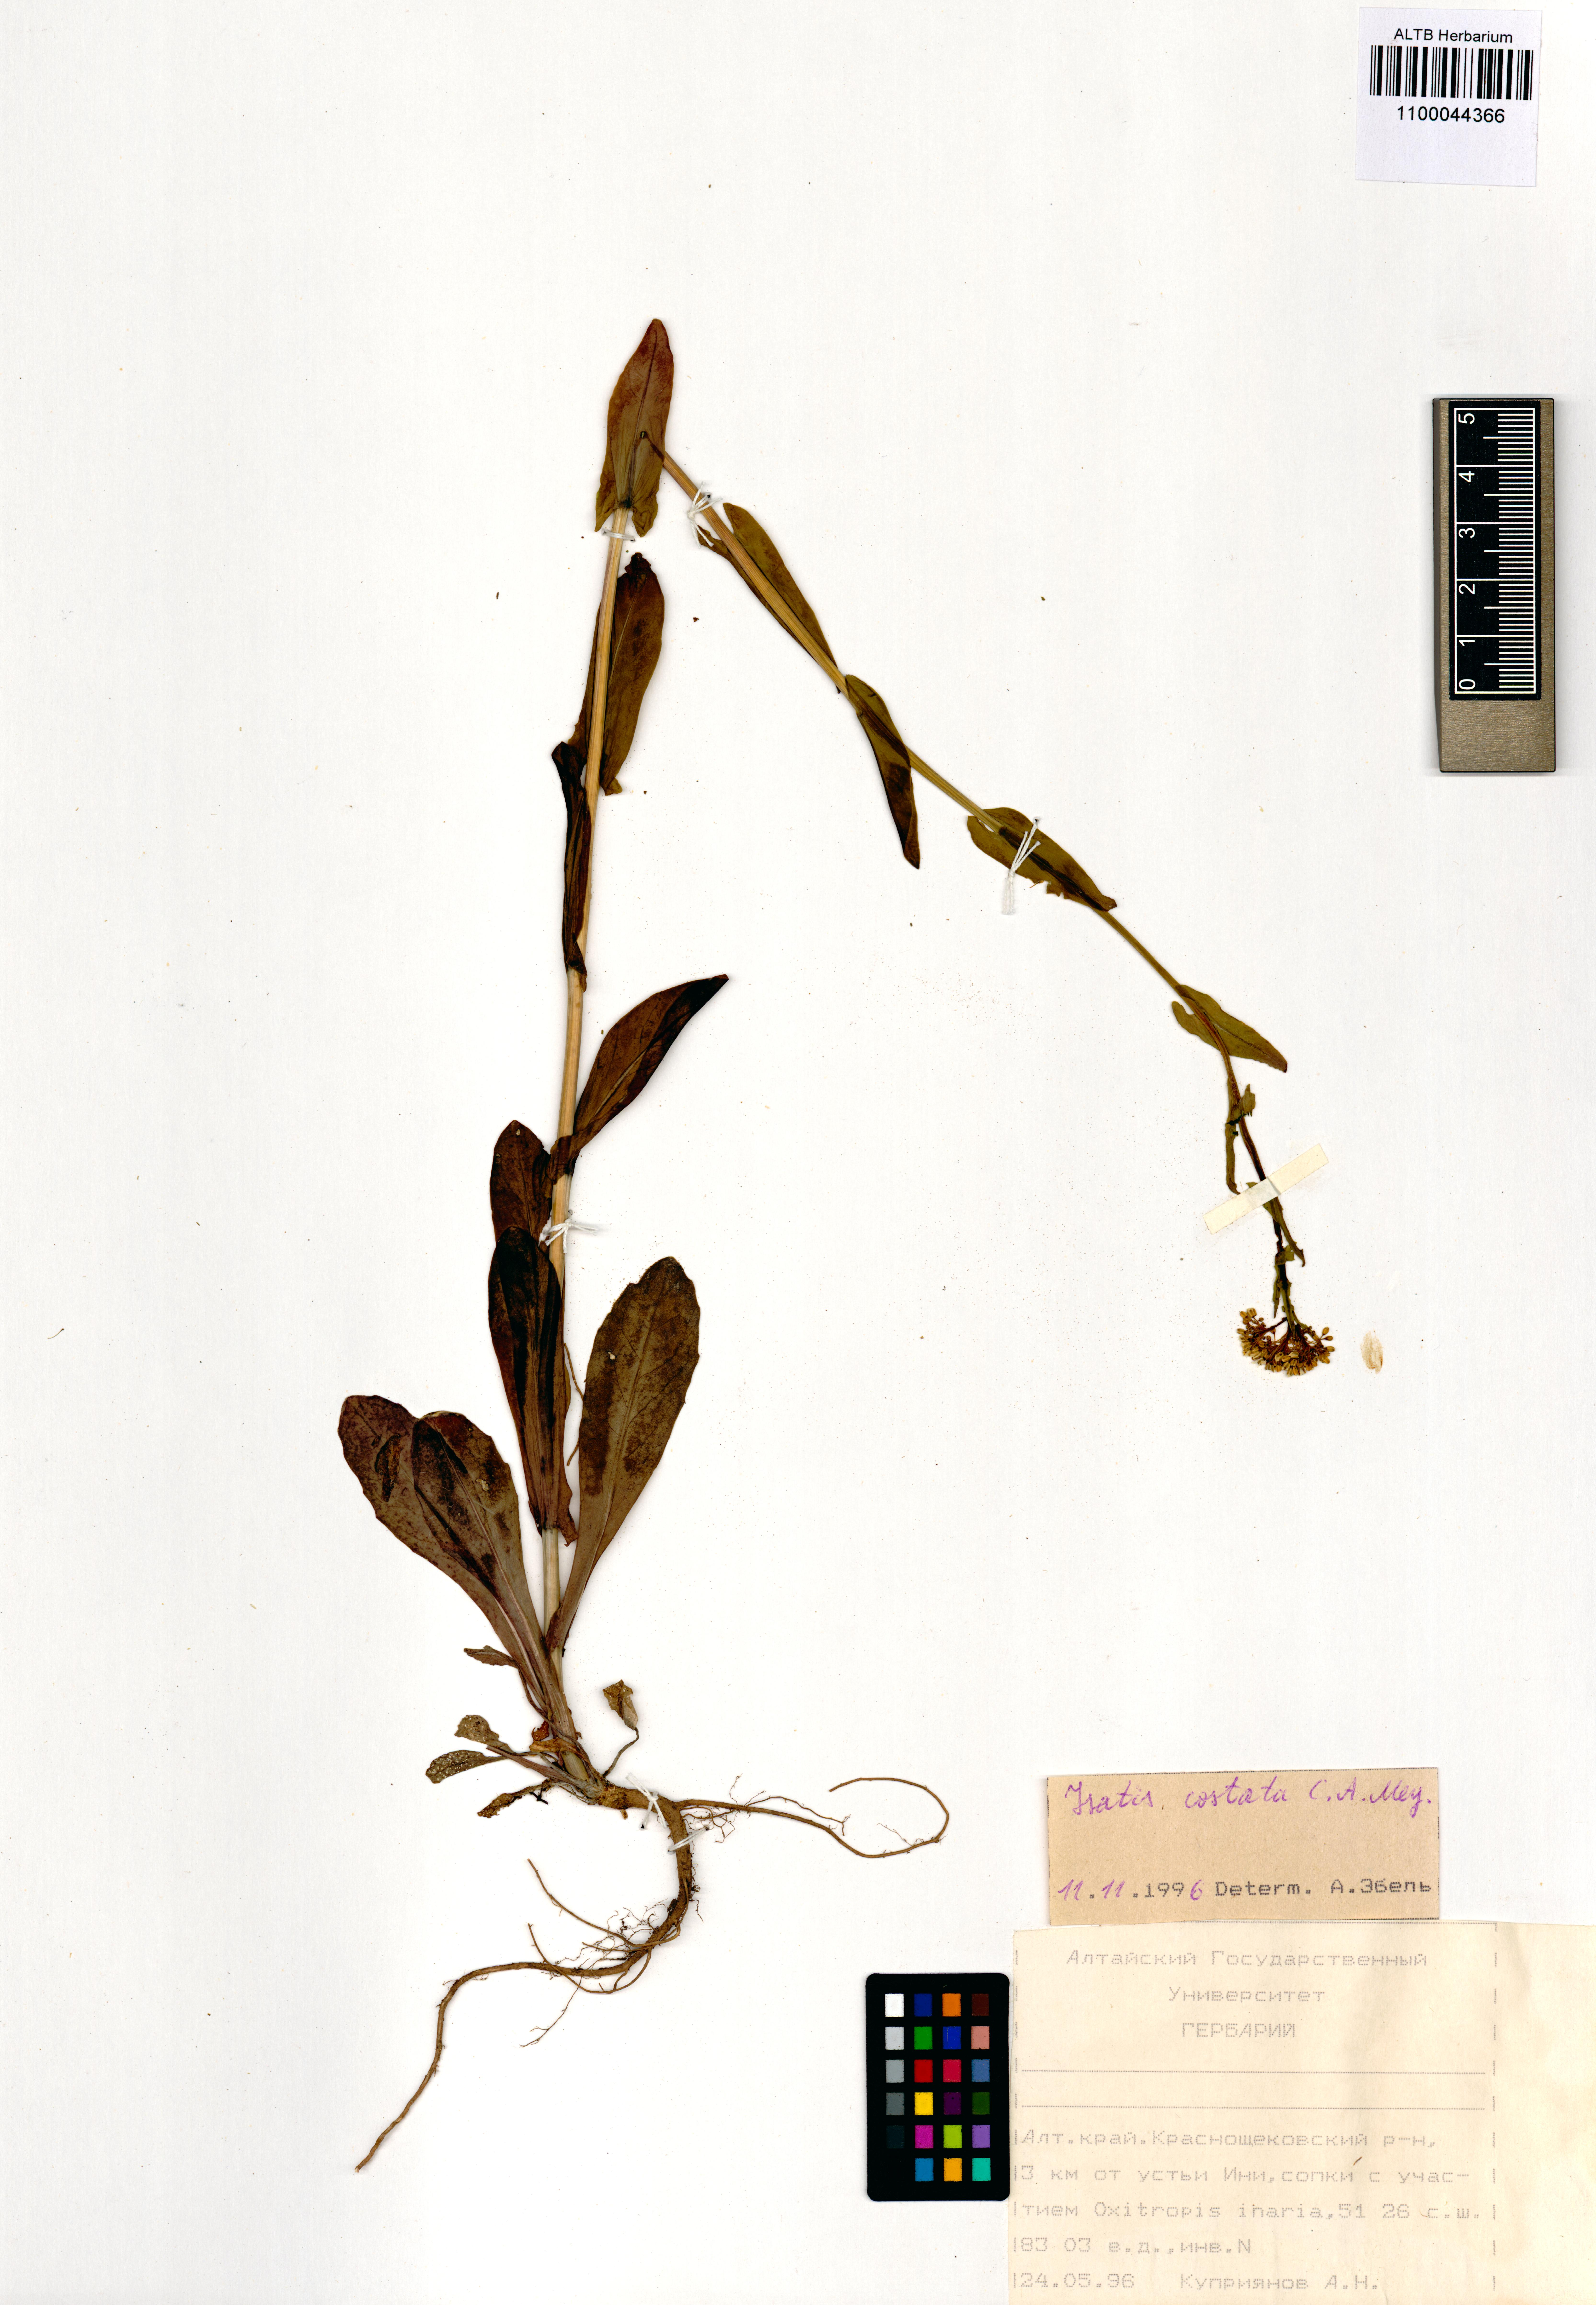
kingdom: Plantae
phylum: Tracheophyta
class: Magnoliopsida
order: Brassicales
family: Brassicaceae
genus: Isatis
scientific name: Isatis costata
